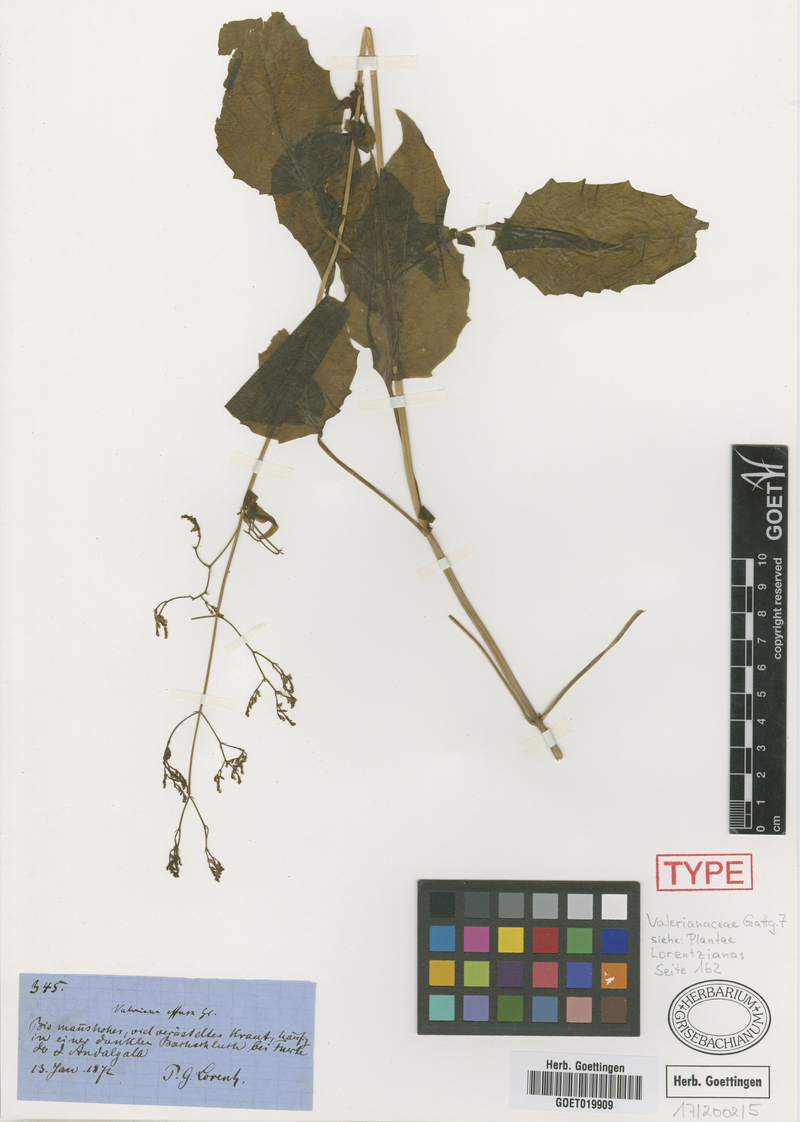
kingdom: Plantae
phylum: Tracheophyta
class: Magnoliopsida
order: Dipsacales
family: Caprifoliaceae
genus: Valeriana
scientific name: Valeriana effusa
